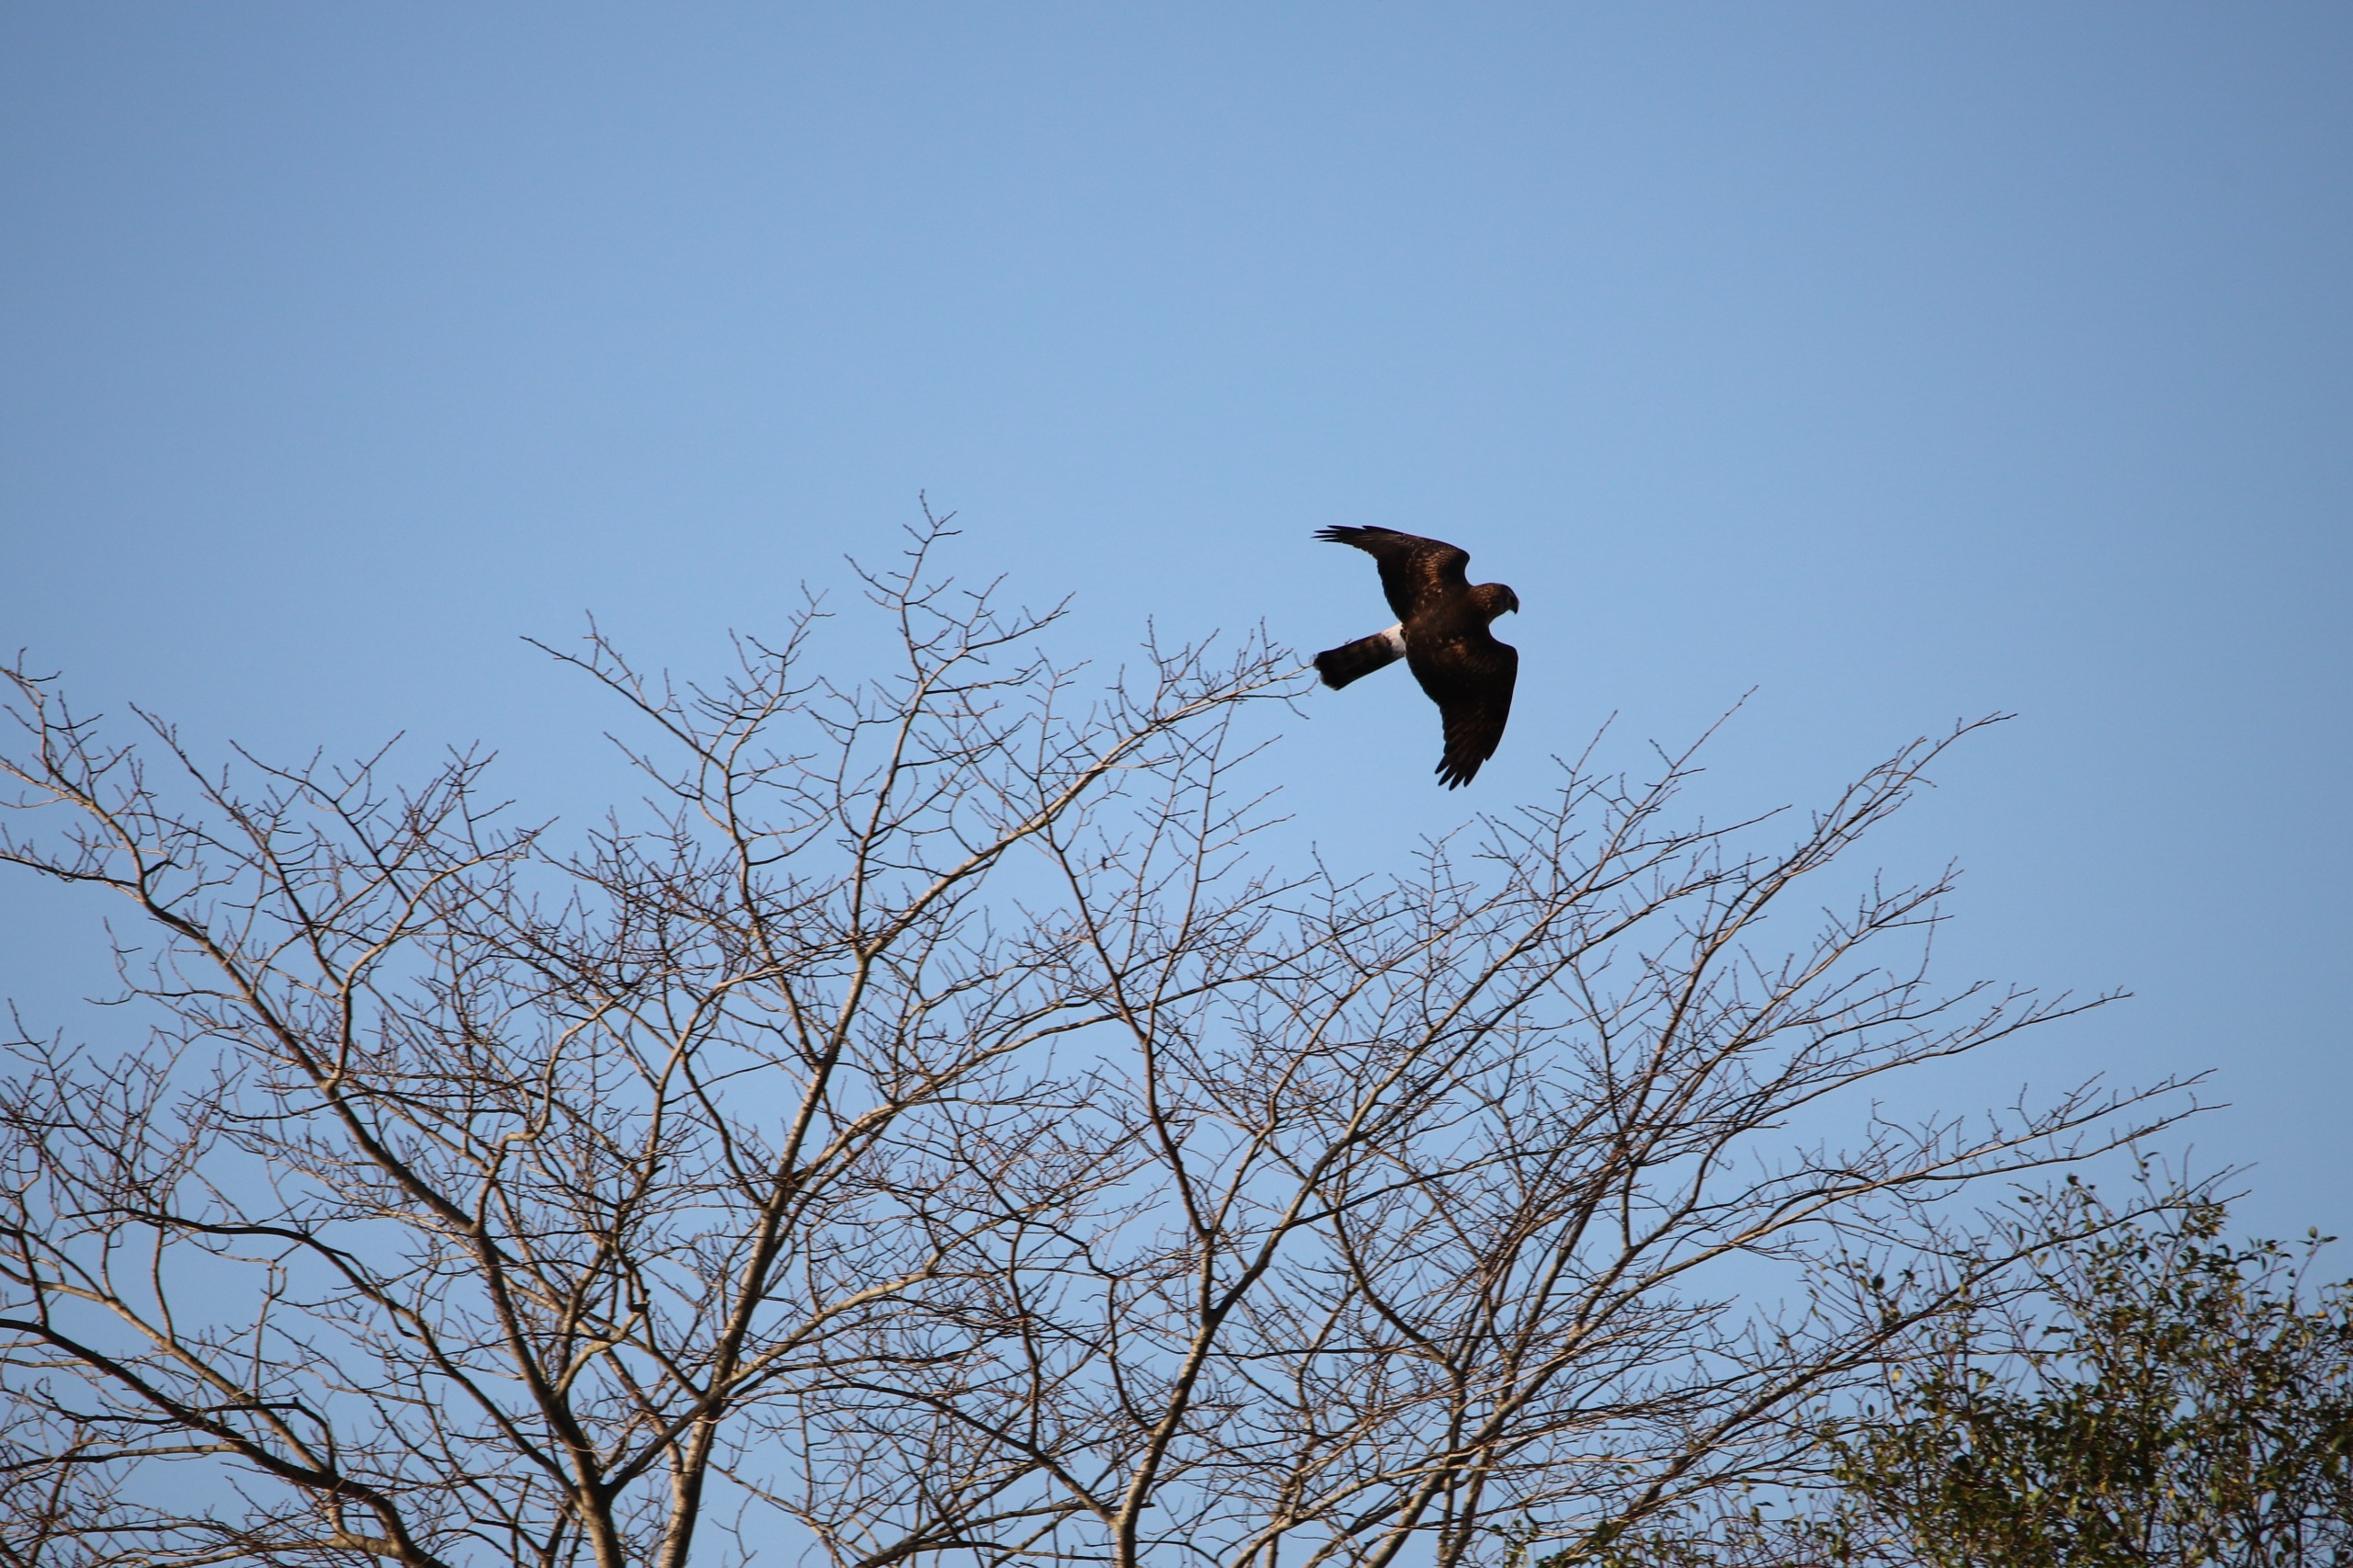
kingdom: Animalia
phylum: Chordata
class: Aves
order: Accipitriformes
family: Accipitridae
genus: Circus
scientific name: Circus cyaneus
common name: Blå kærhøg
